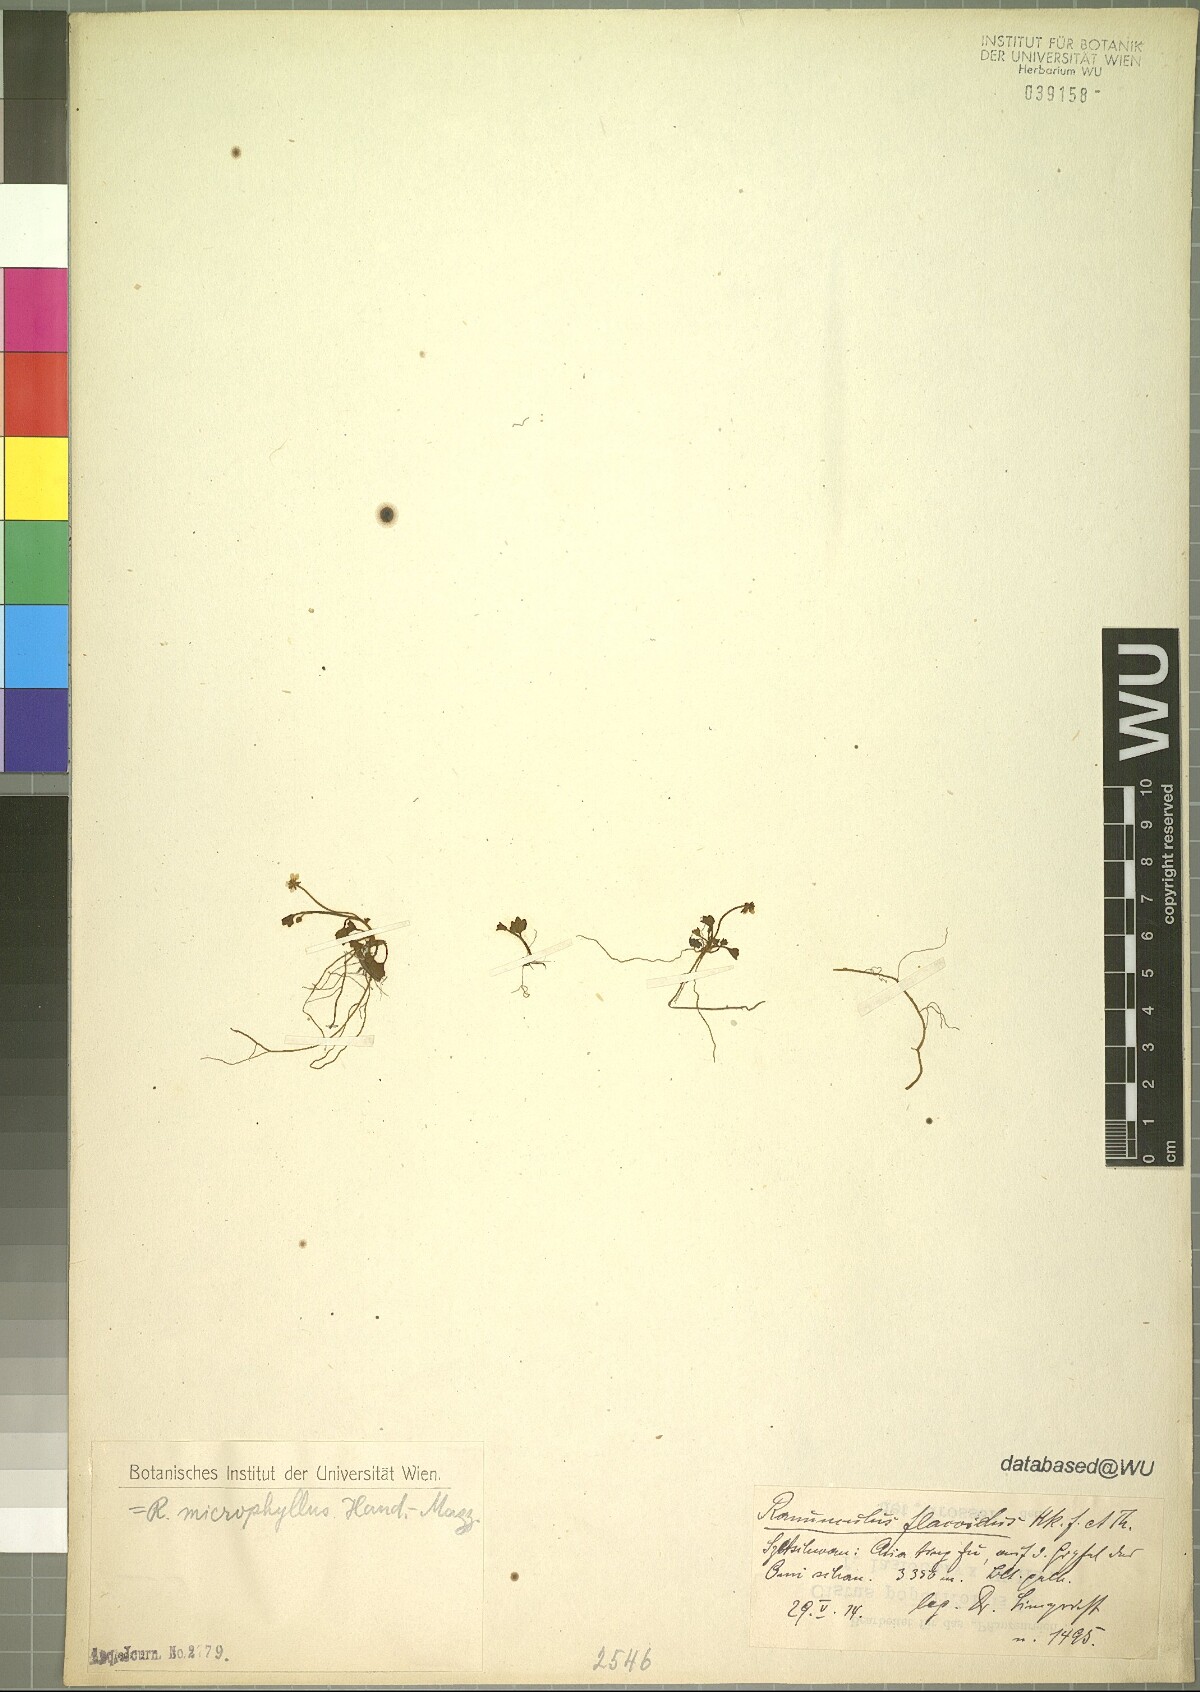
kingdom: Plantae
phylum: Tracheophyta
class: Magnoliopsida
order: Ranunculales
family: Ranunculaceae
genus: Ranunculus
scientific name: Ranunculus microphyllus
